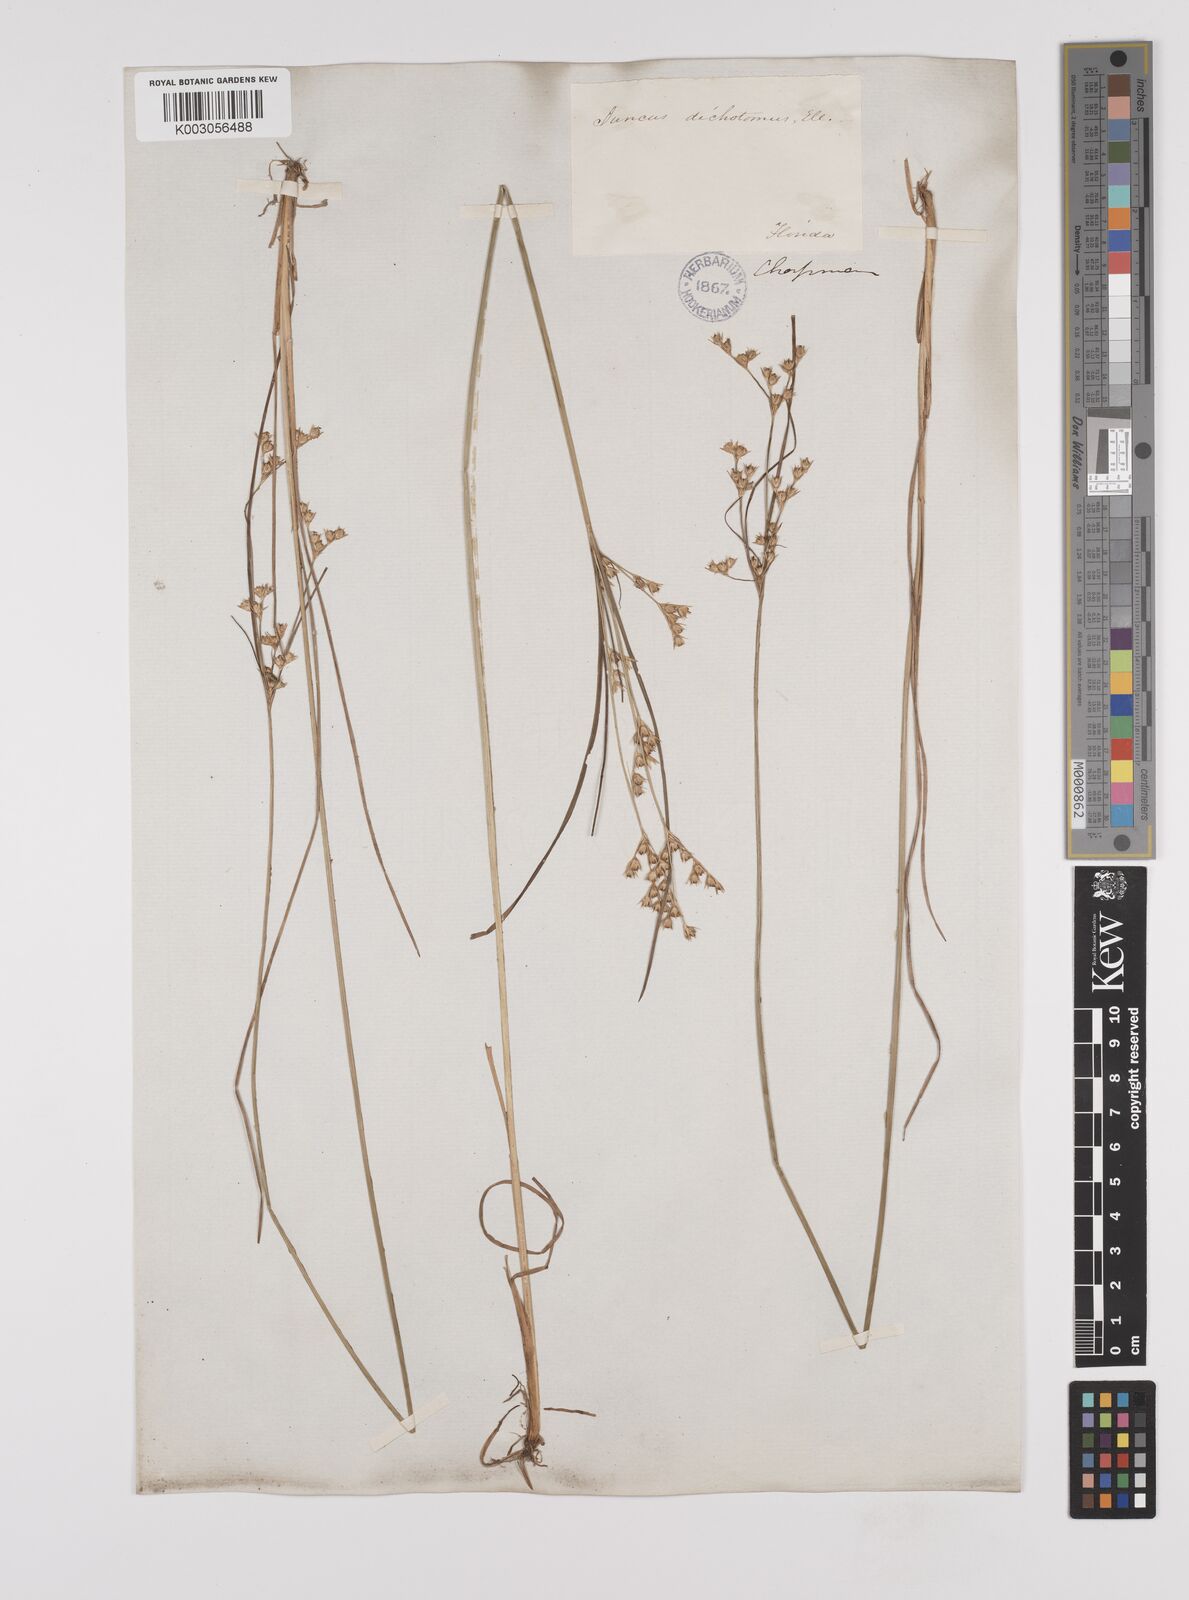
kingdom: Plantae
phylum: Tracheophyta
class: Liliopsida
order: Poales
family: Juncaceae
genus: Juncus
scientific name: Juncus dichotomus
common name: Forked rush
